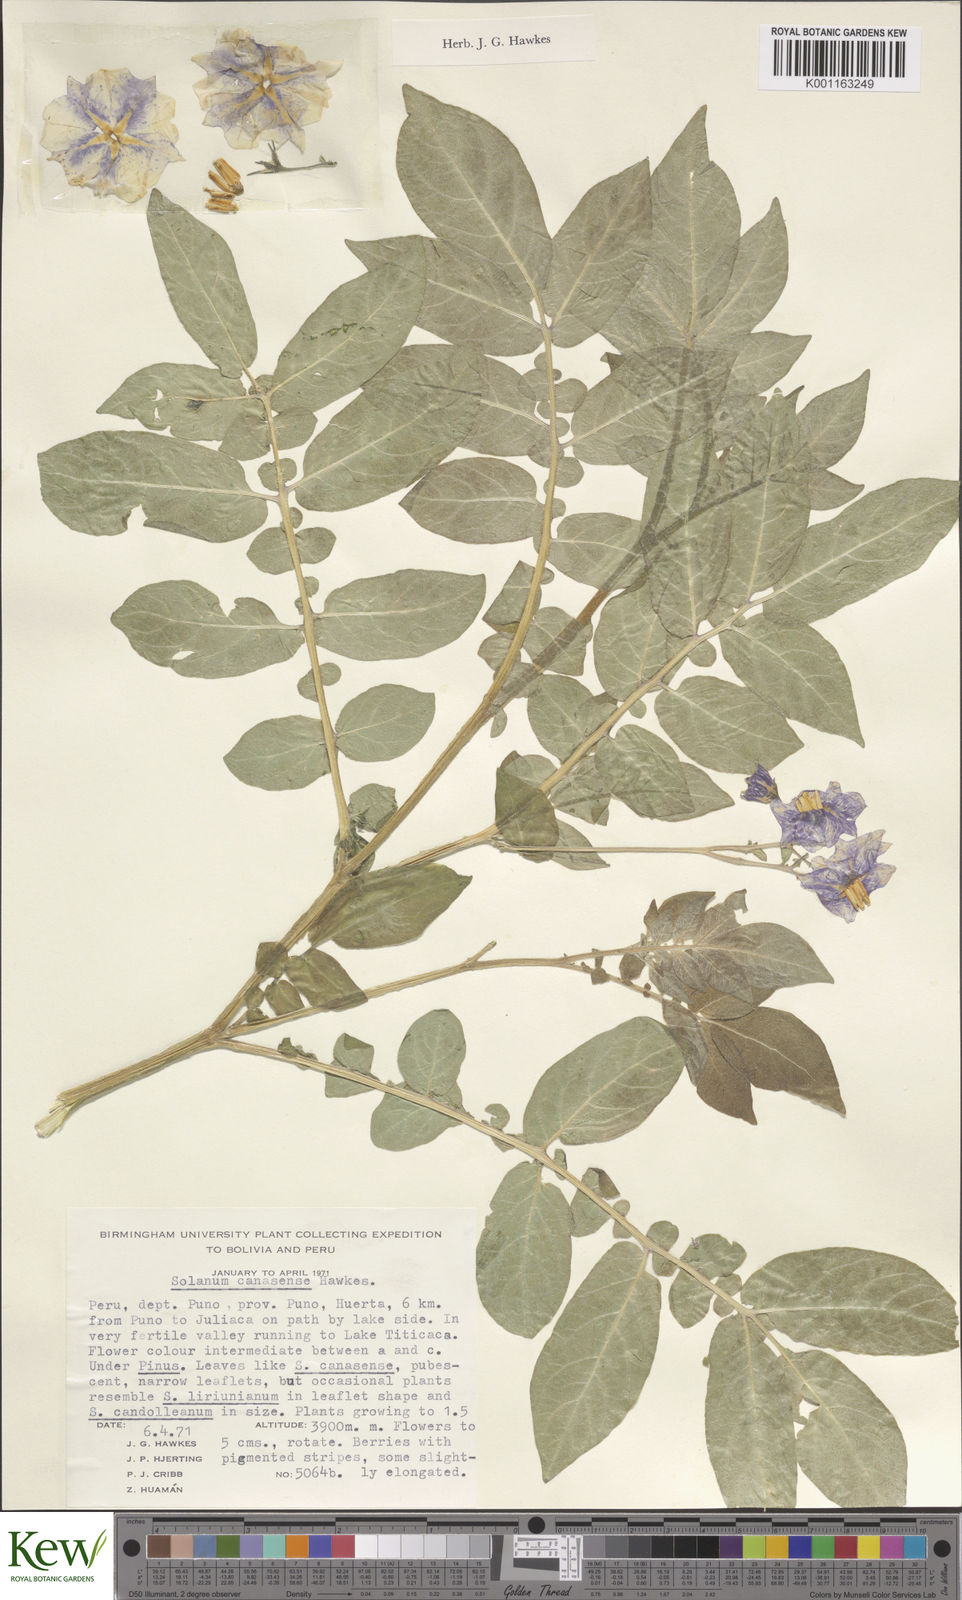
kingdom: Plantae
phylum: Tracheophyta
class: Magnoliopsida
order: Solanales
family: Solanaceae
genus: Solanum
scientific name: Solanum candolleanum
